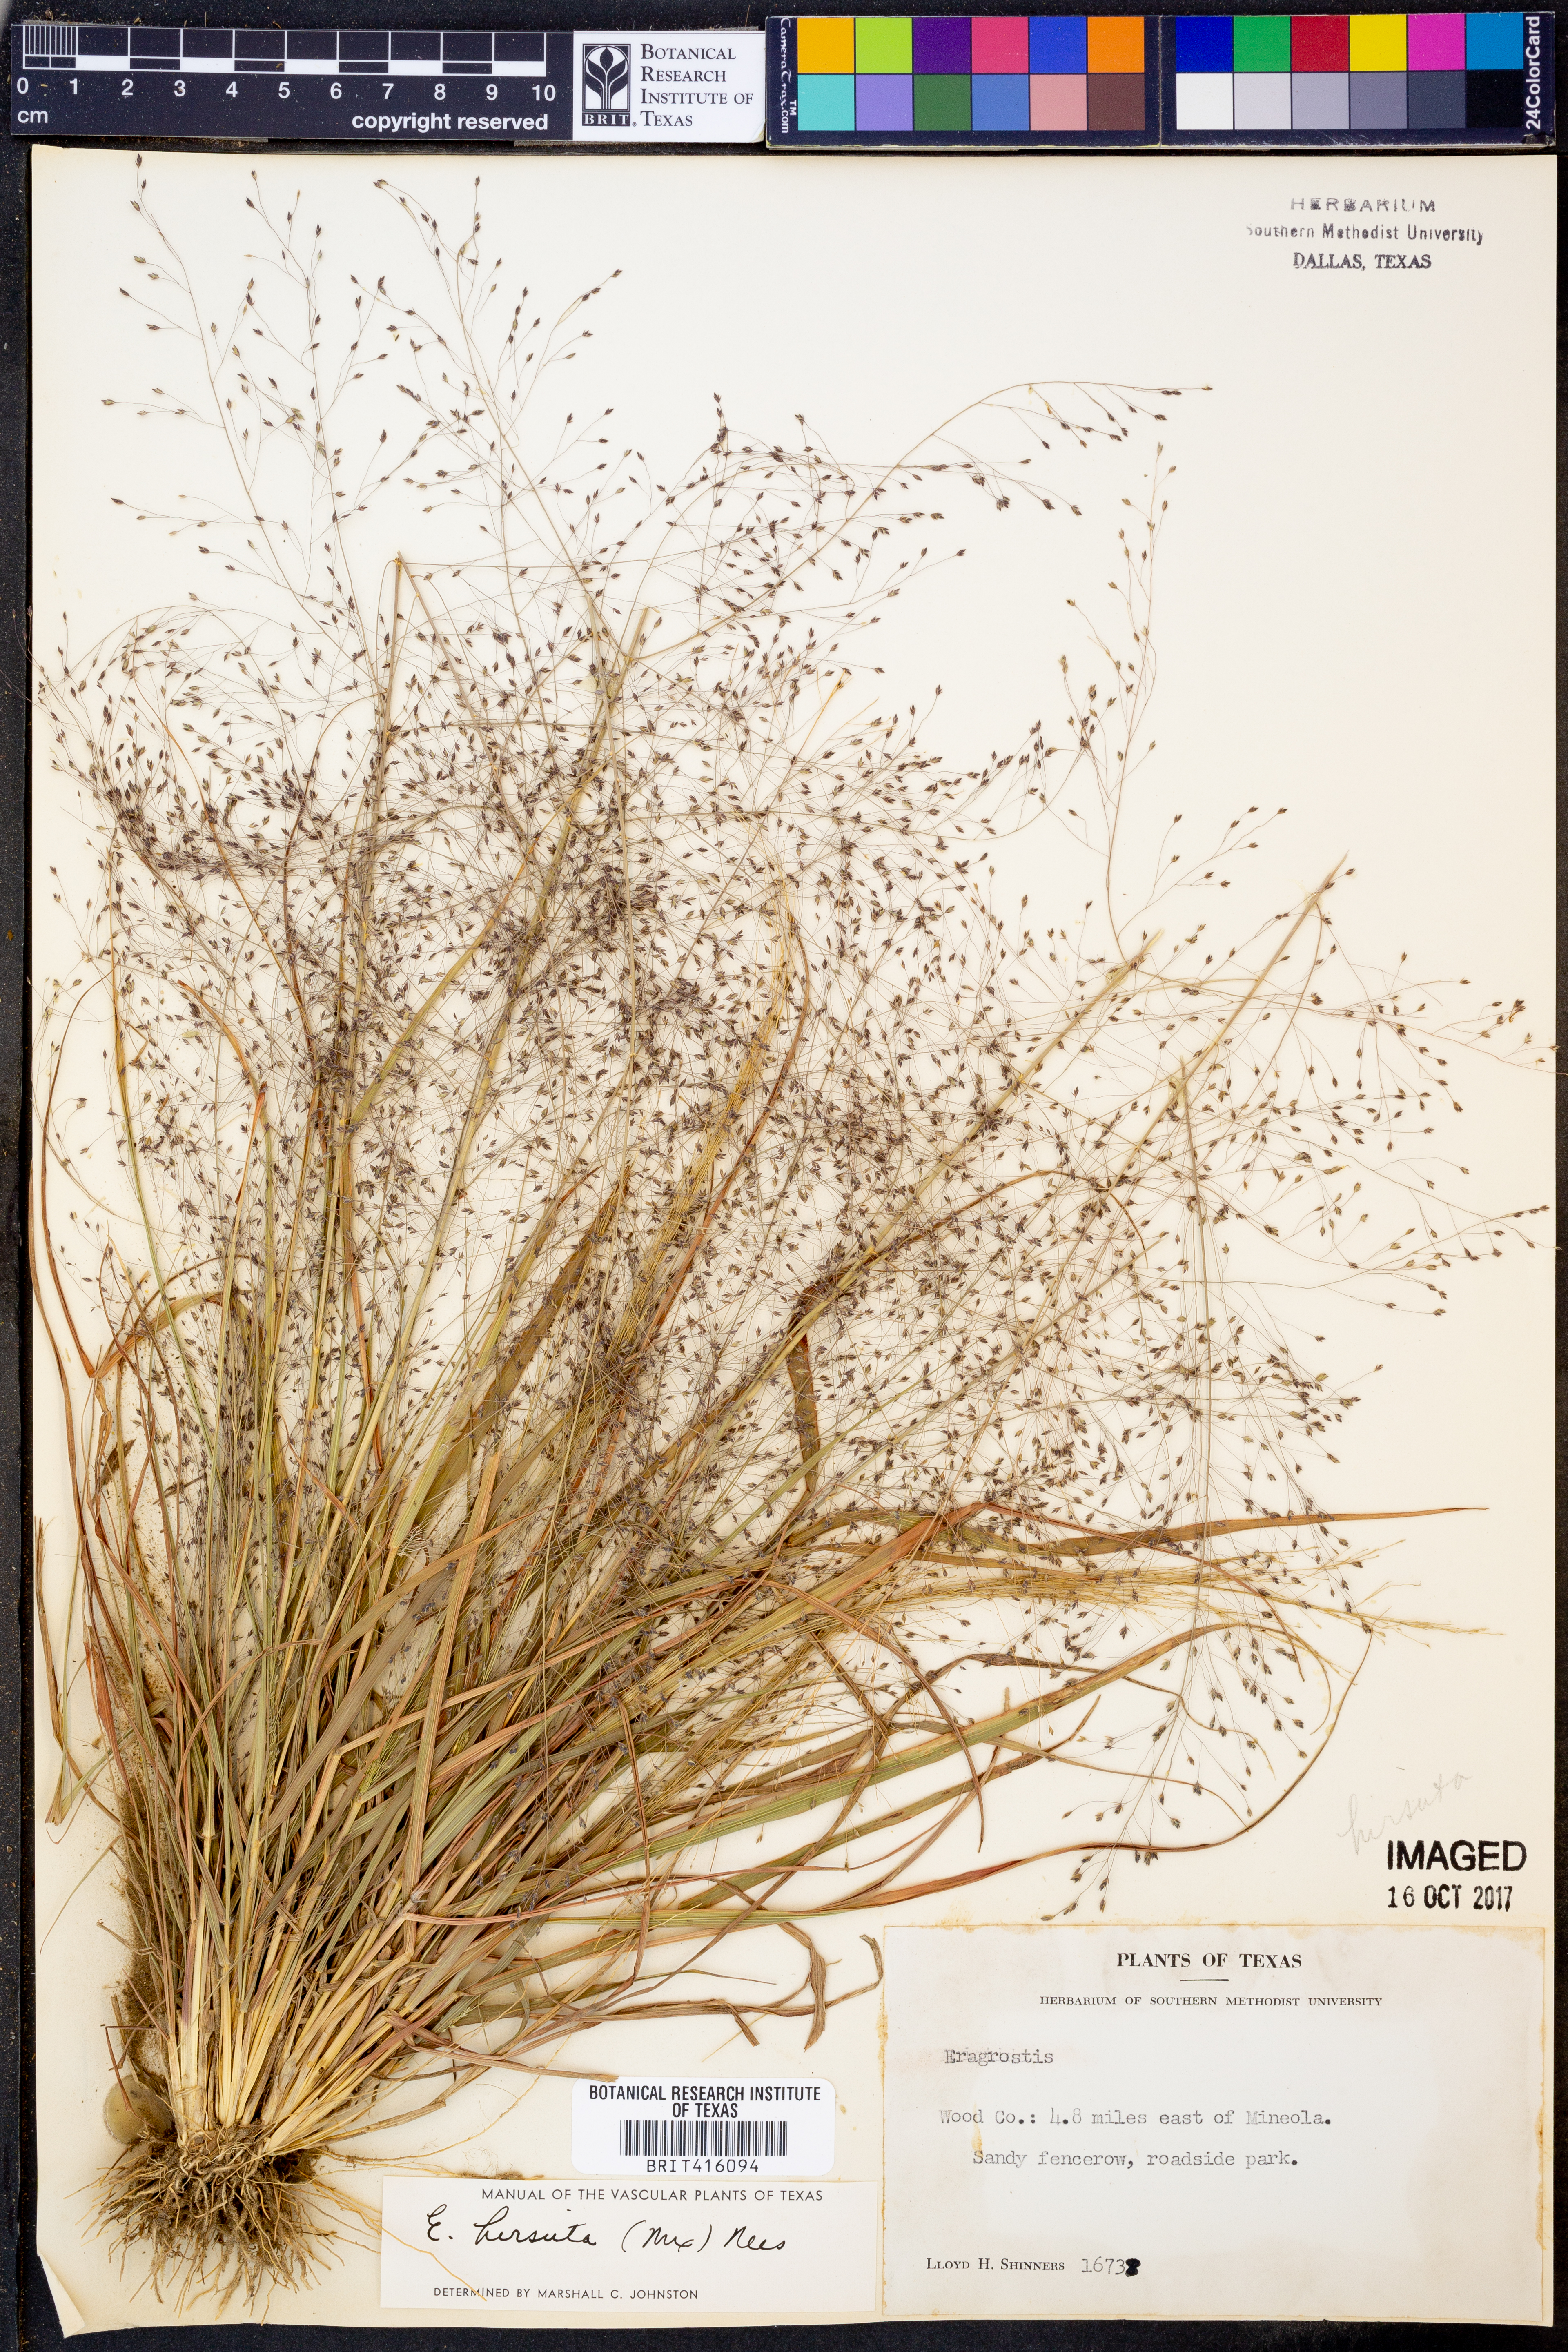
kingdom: Plantae
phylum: Tracheophyta
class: Liliopsida
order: Poales
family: Poaceae
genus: Eragrostis
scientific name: Eragrostis hirsuta
